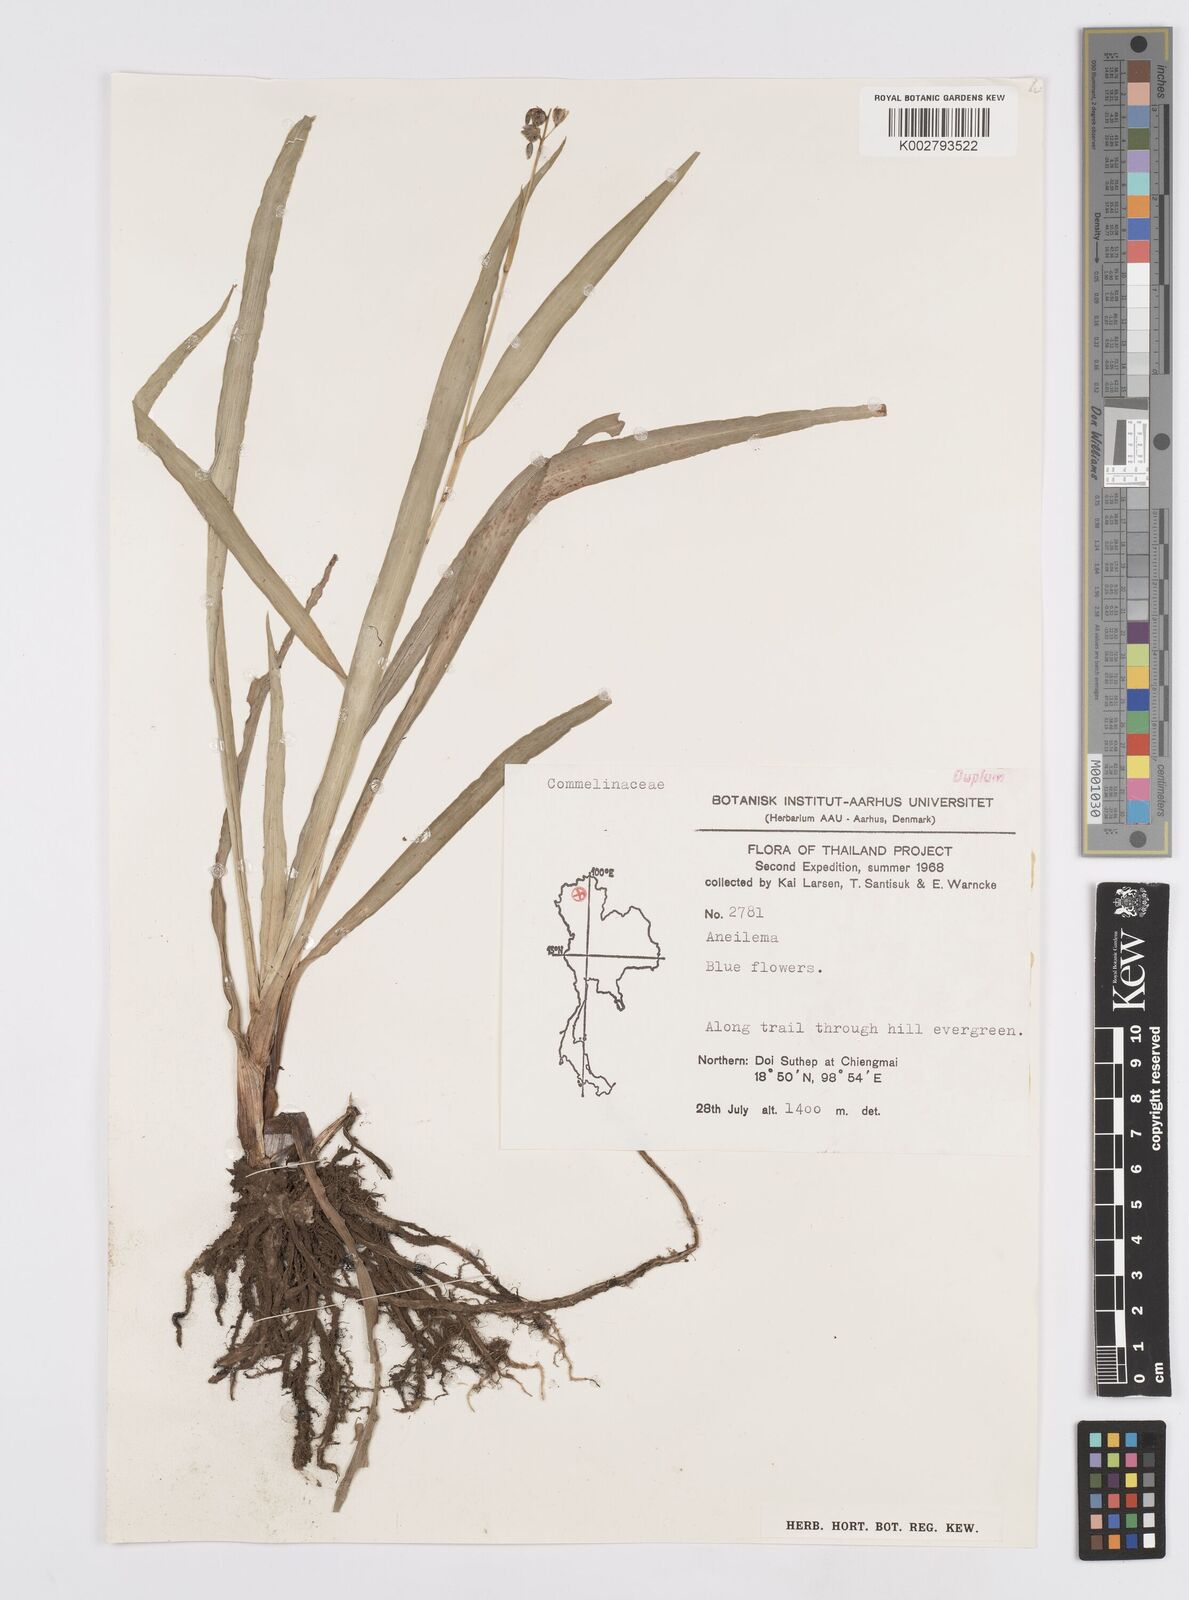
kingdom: Plantae
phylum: Tracheophyta
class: Liliopsida
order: Commelinales
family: Commelinaceae
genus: Murdannia
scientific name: Murdannia
